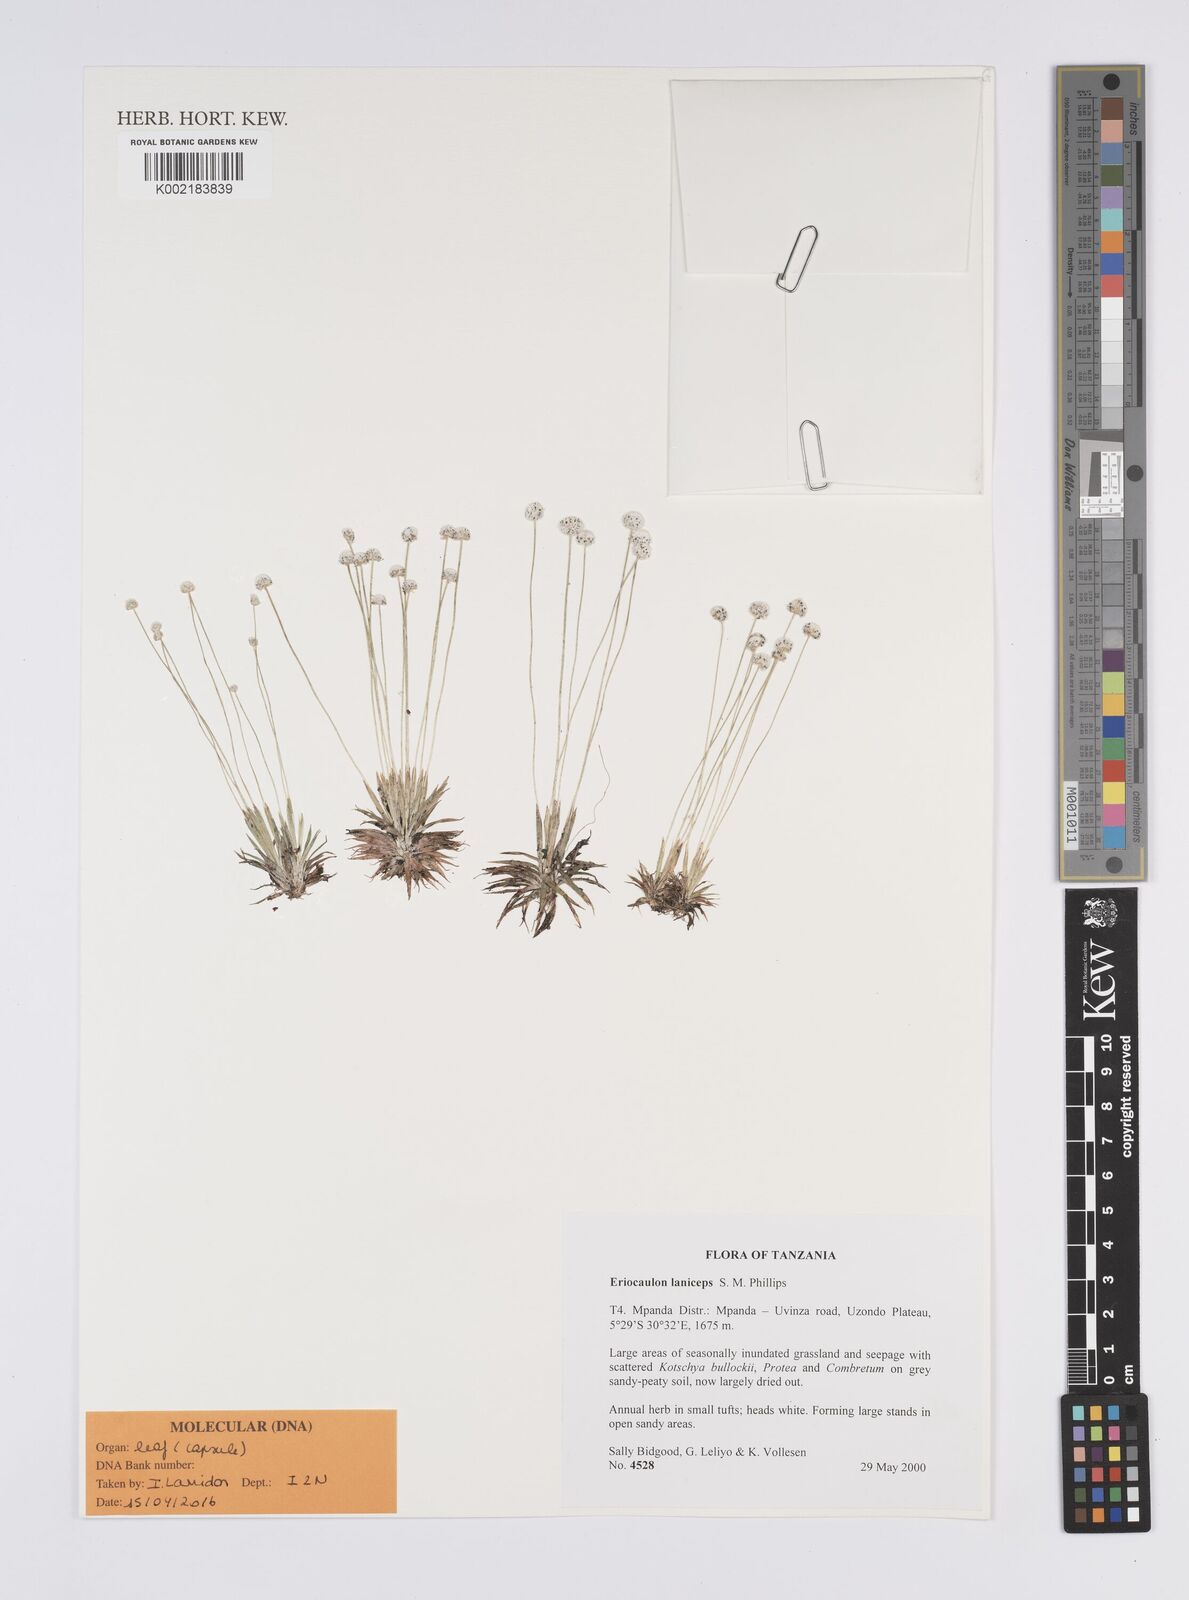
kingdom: Plantae
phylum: Tracheophyta
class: Liliopsida
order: Poales
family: Eriocaulaceae
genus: Eriocaulon
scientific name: Eriocaulon laniceps
